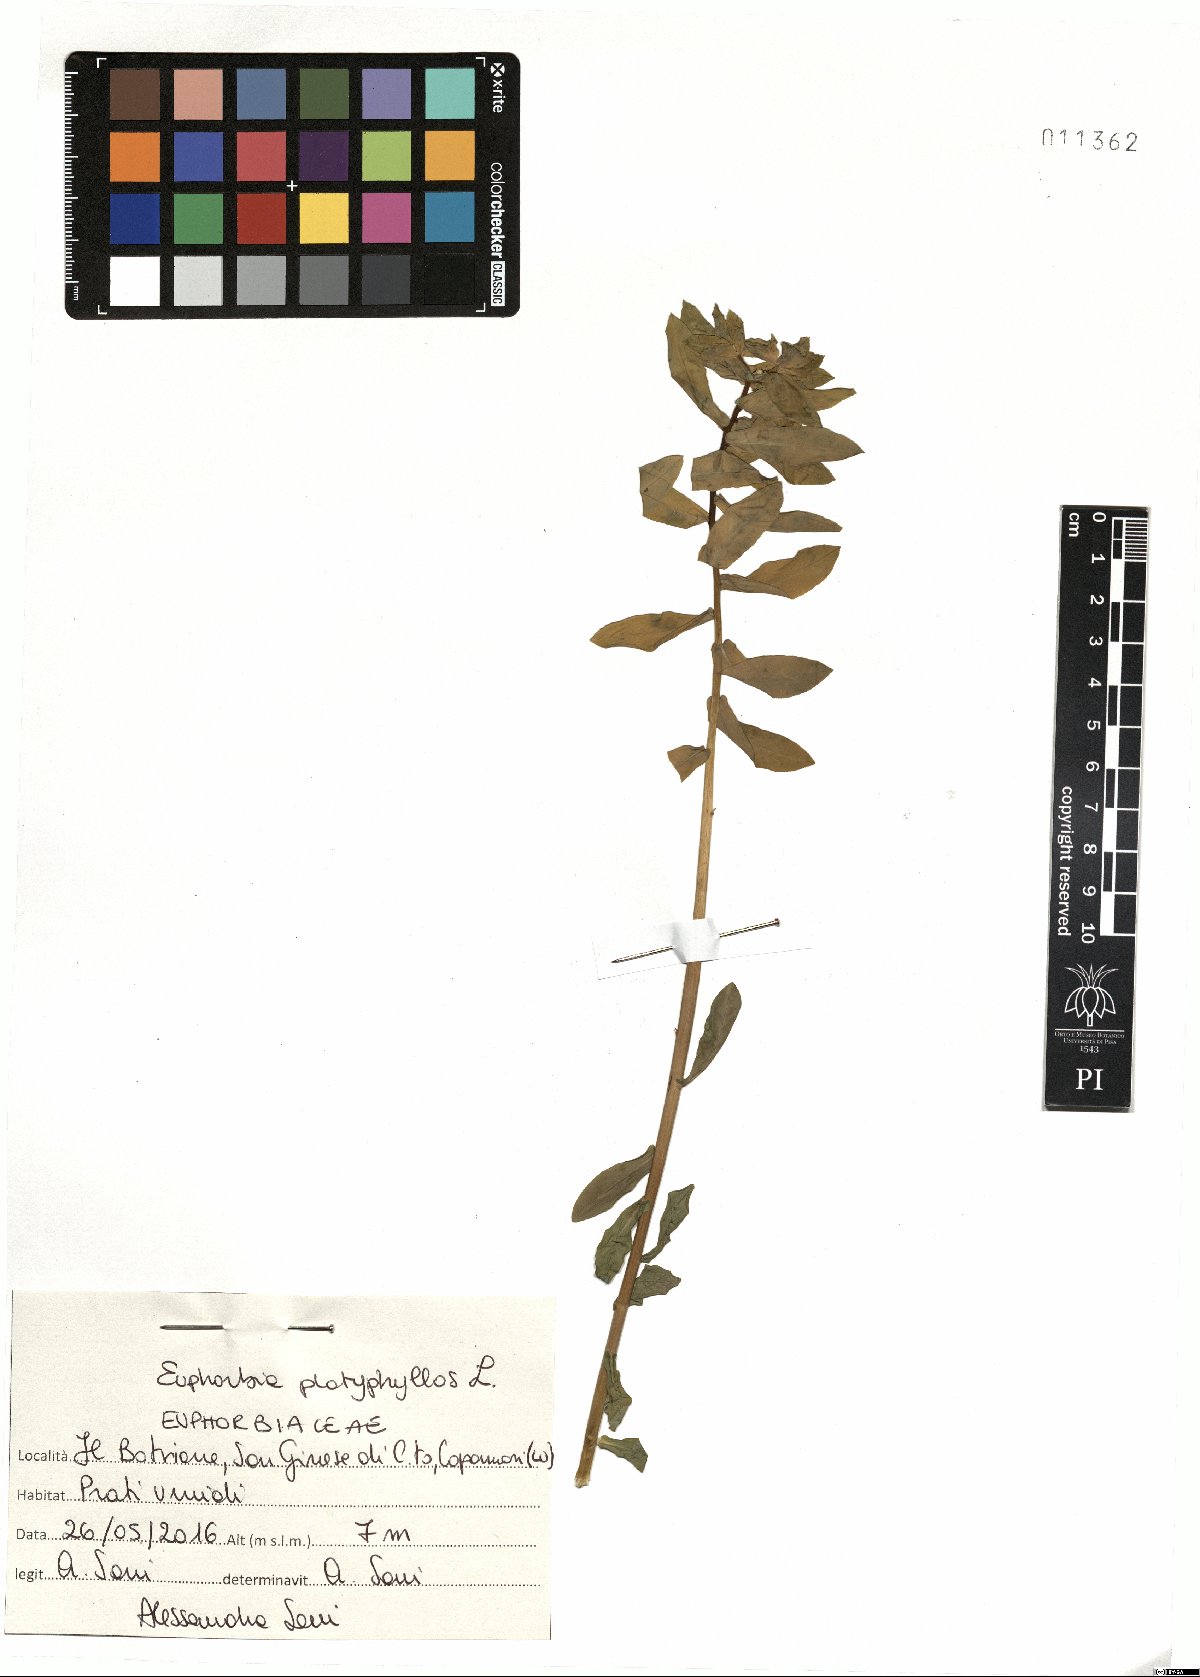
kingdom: Plantae
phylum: Tracheophyta
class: Magnoliopsida
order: Malpighiales
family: Euphorbiaceae
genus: Euphorbia
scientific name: Euphorbia platyphyllos
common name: Broad-leaved spurge
